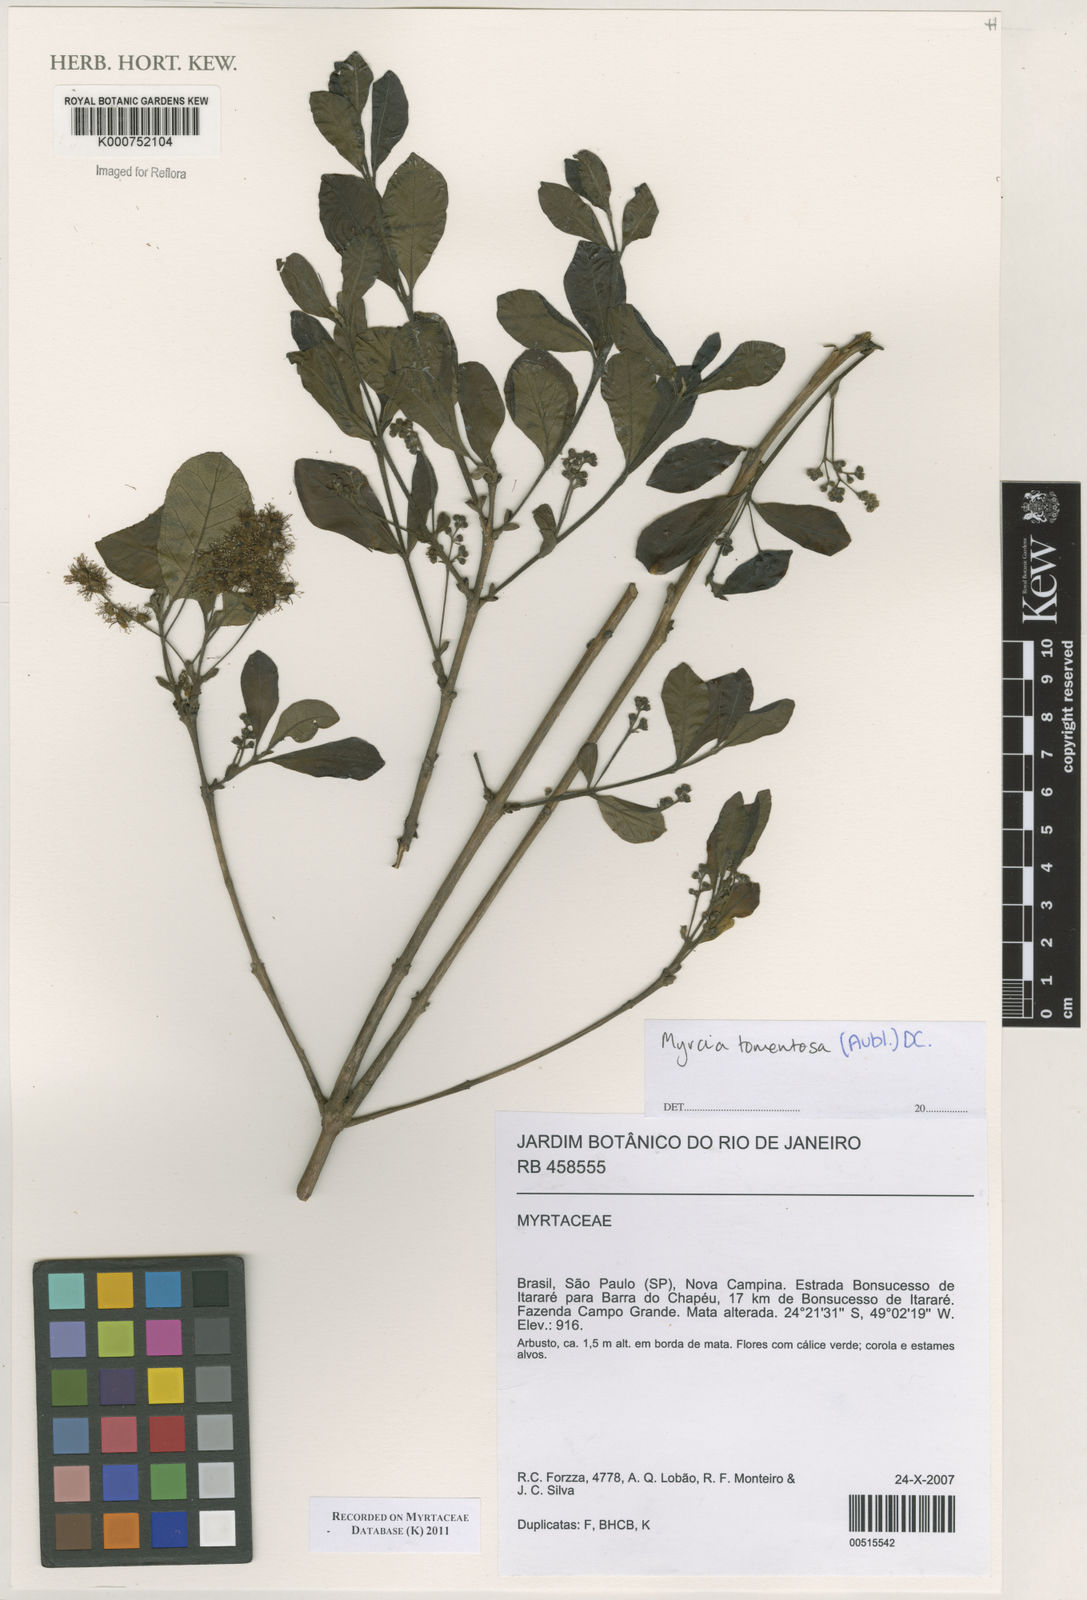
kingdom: Plantae
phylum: Tracheophyta
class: Magnoliopsida
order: Myrtales
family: Myrtaceae
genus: Myrcia
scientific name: Myrcia tomentosa
